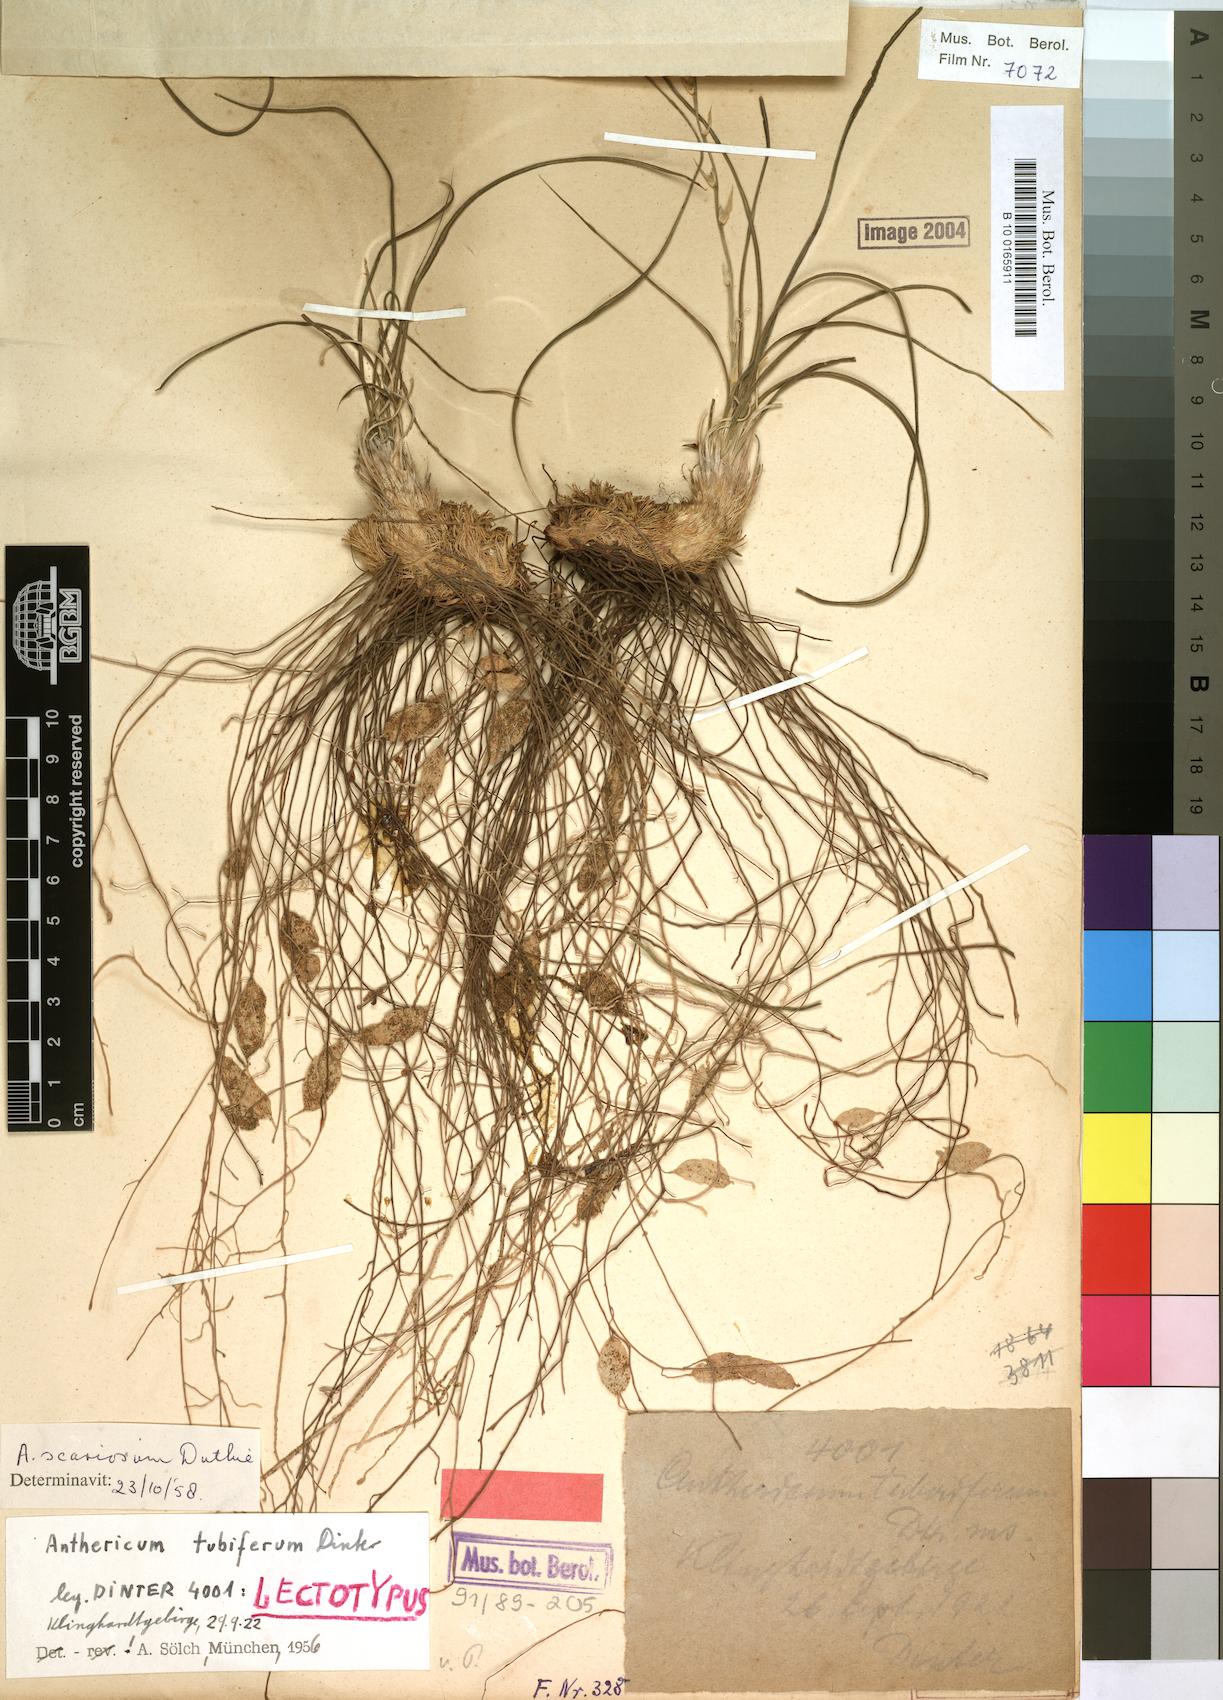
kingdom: Plantae
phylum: Tracheophyta
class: Liliopsida
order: Asparagales
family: Asparagaceae
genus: Chlorophytum
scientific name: Chlorophytum rangei
